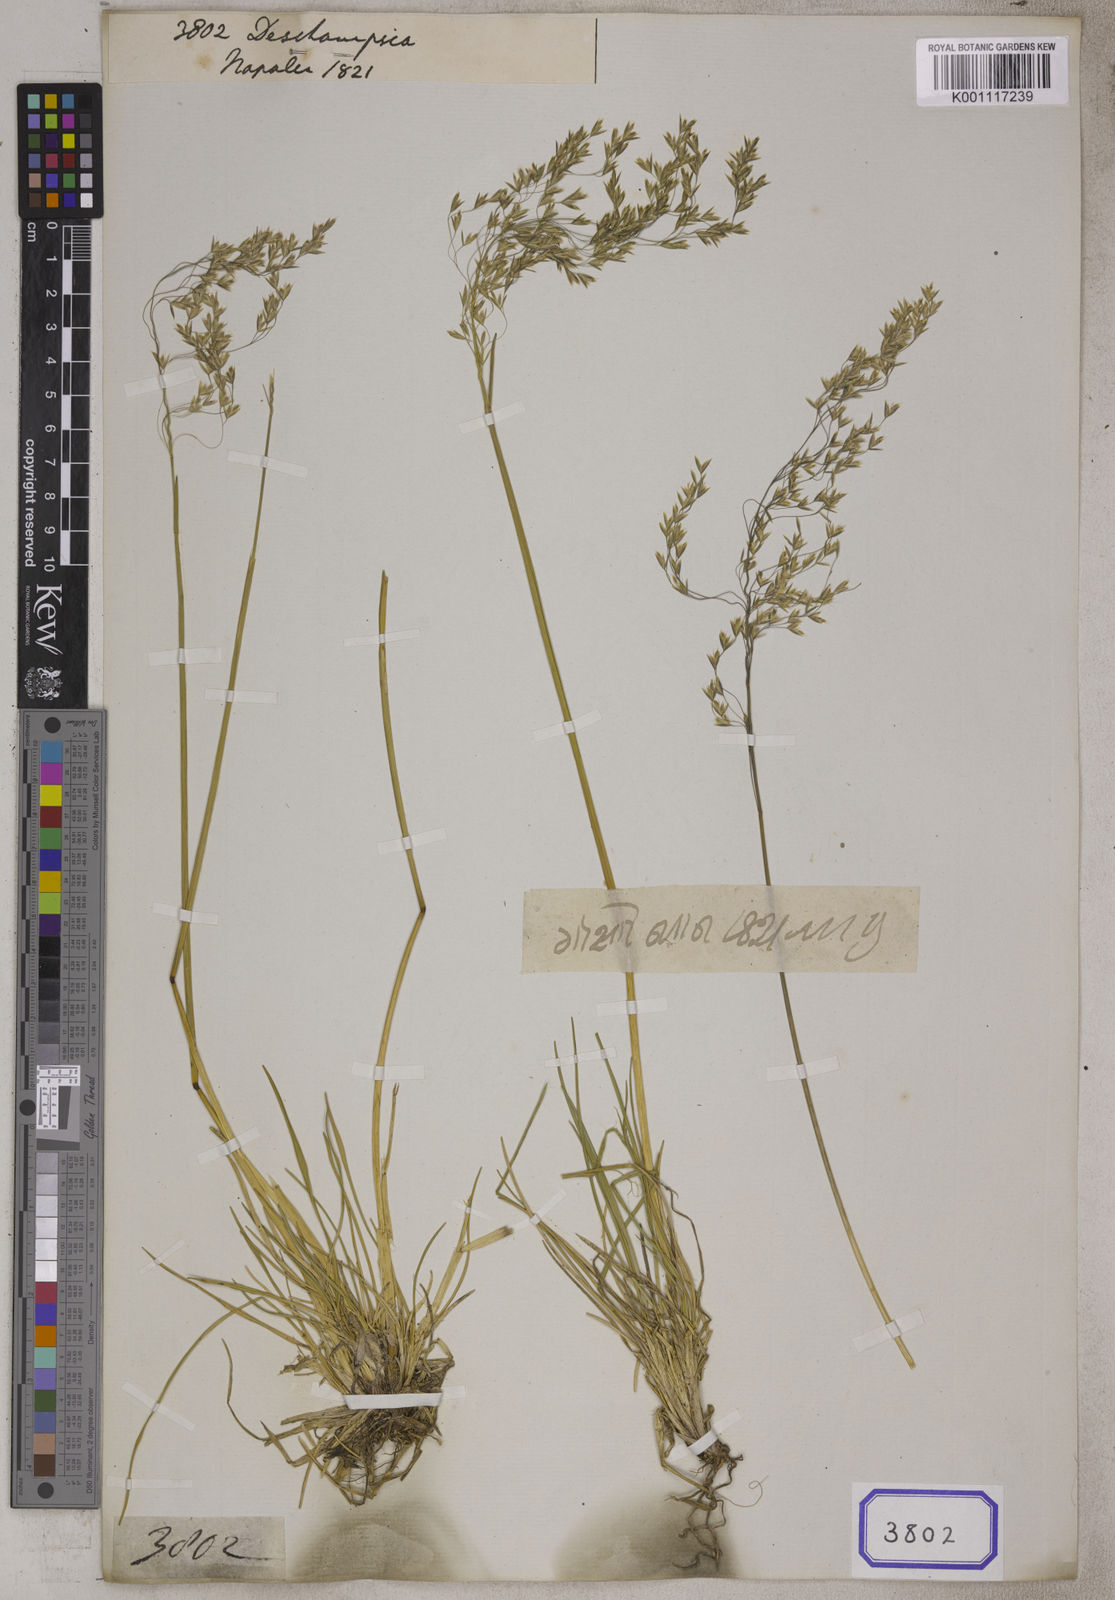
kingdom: Plantae
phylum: Tracheophyta
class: Liliopsida
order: Poales
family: Poaceae
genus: Deschampsia
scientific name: Deschampsia
